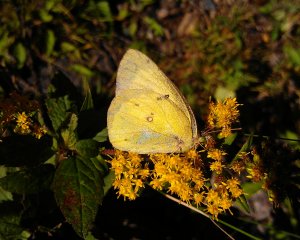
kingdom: Animalia
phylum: Arthropoda
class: Insecta
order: Lepidoptera
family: Pieridae
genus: Colias
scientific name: Colias philodice
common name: Clouded Sulphur
